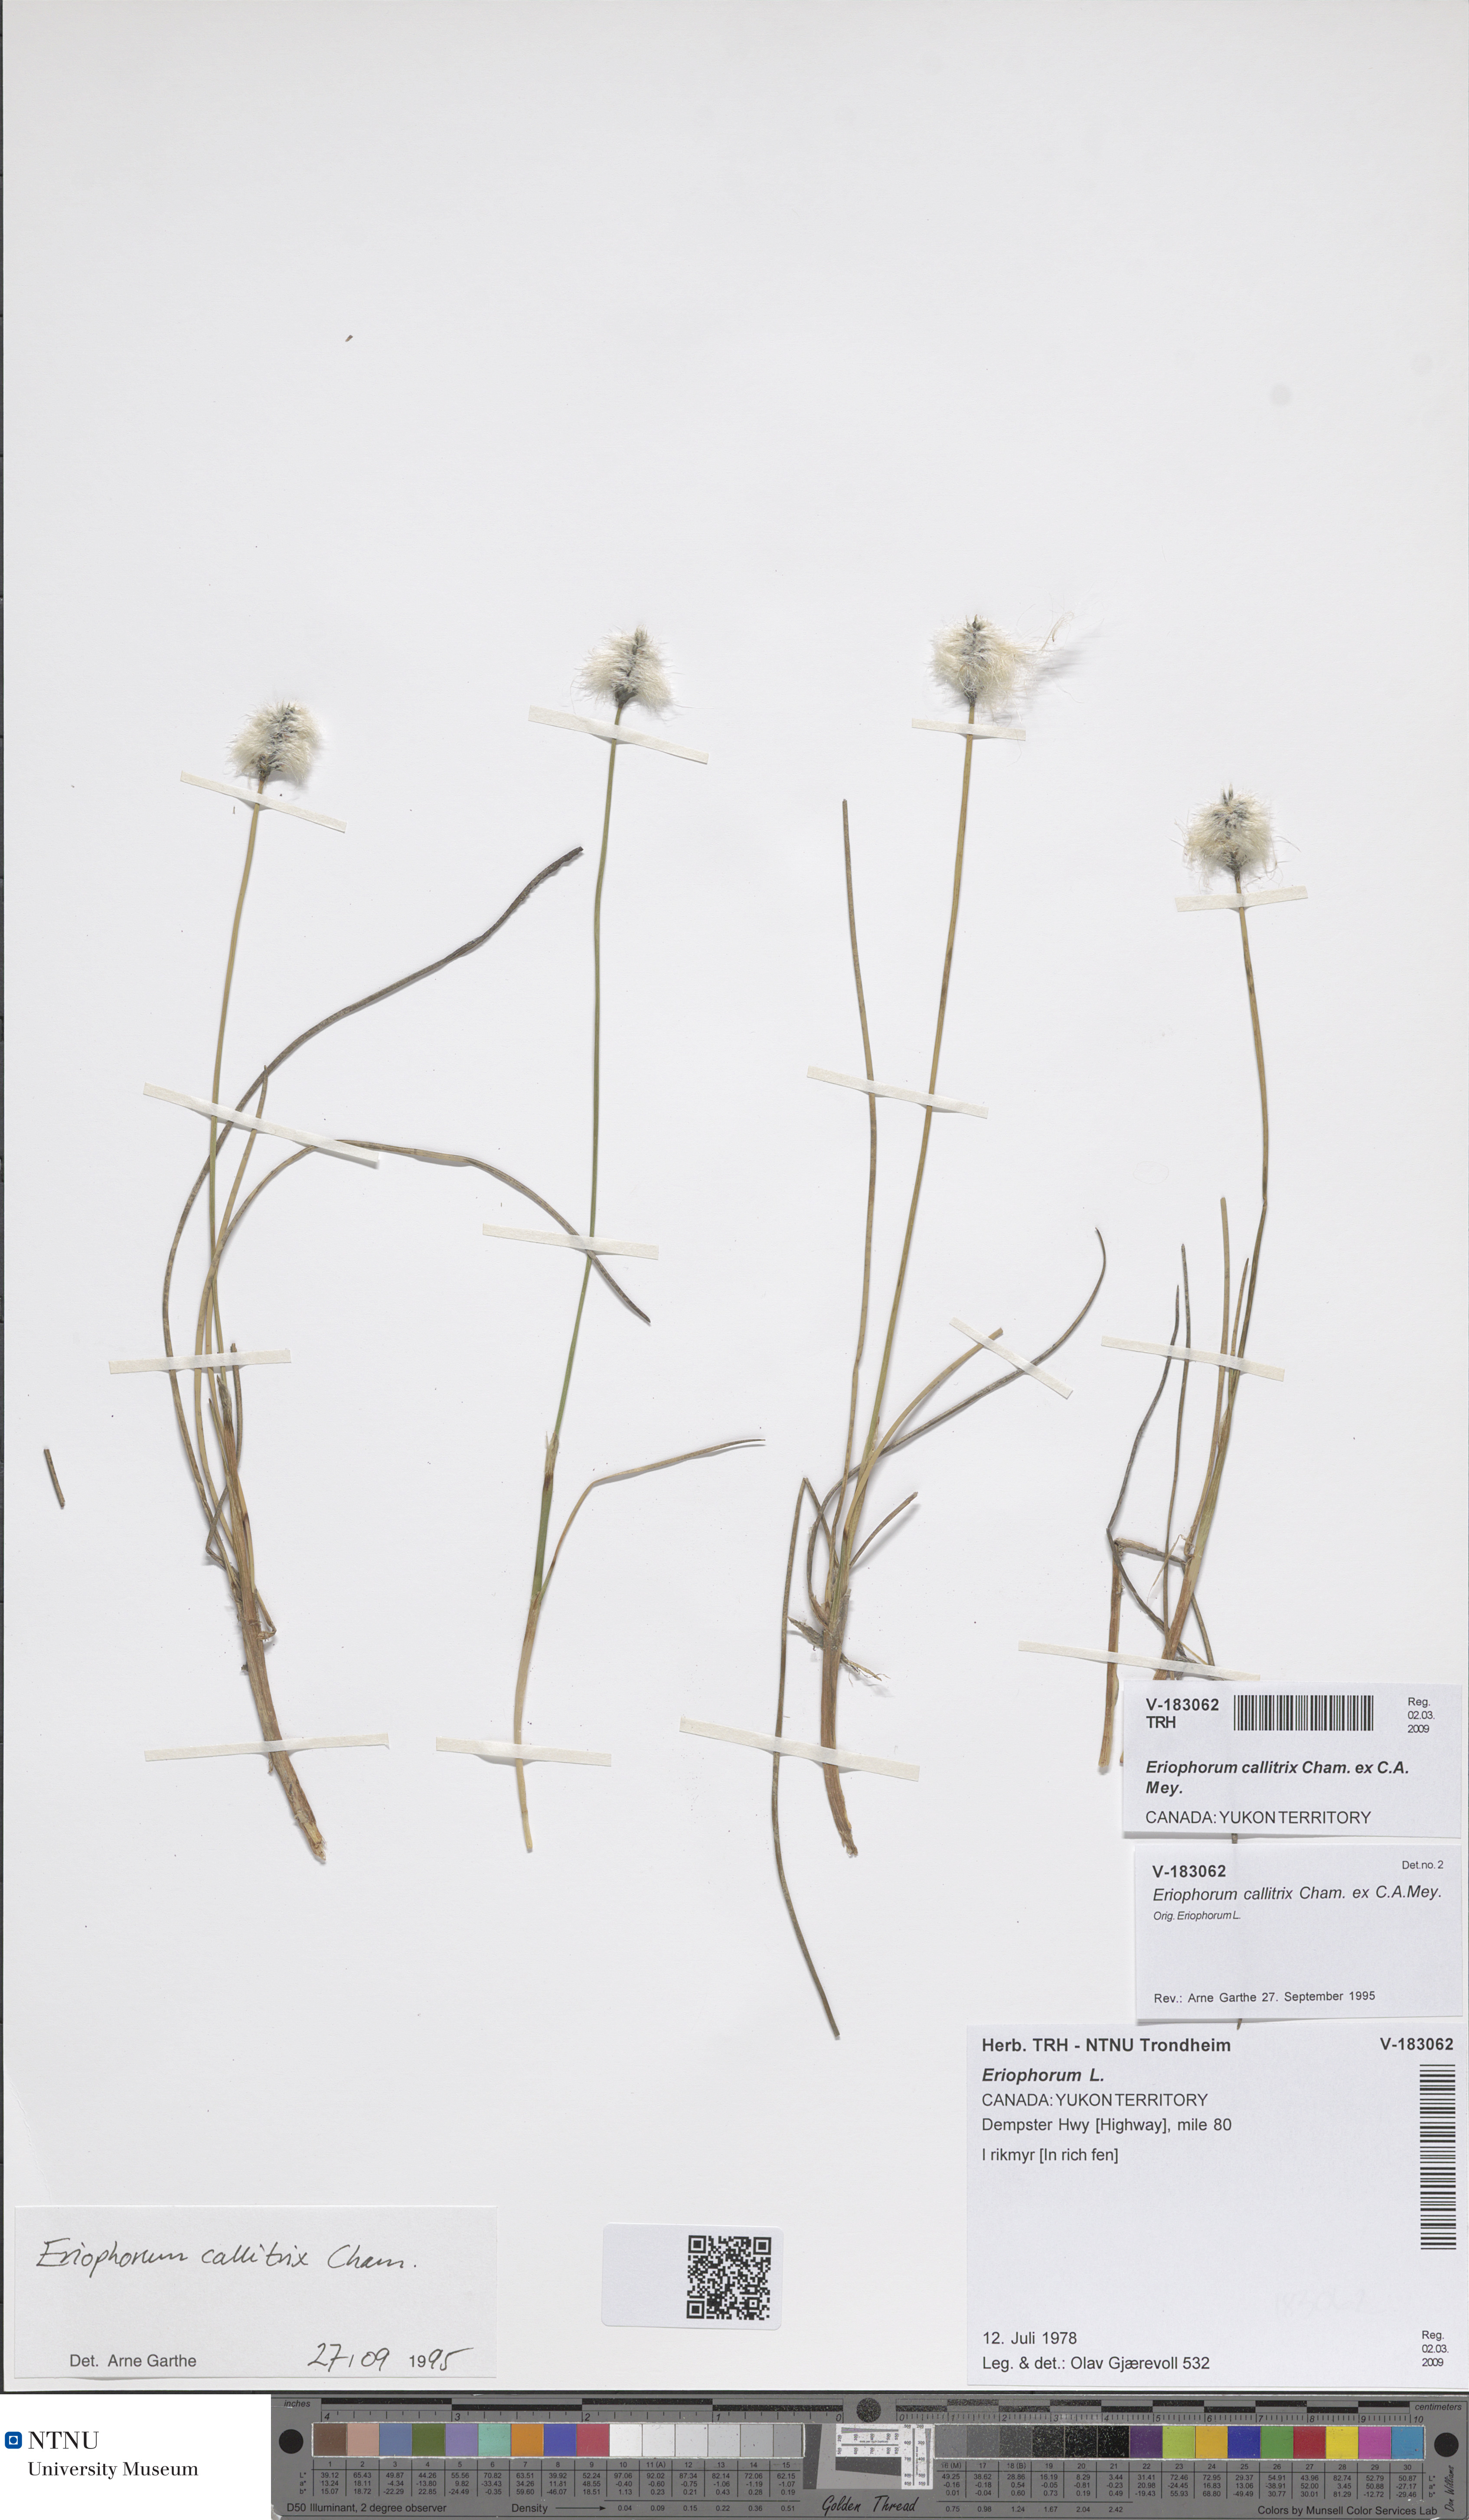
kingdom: Plantae
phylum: Tracheophyta
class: Liliopsida
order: Poales
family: Cyperaceae
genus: Eriophorum
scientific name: Eriophorum callitrix
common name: Arctic cottongrass
